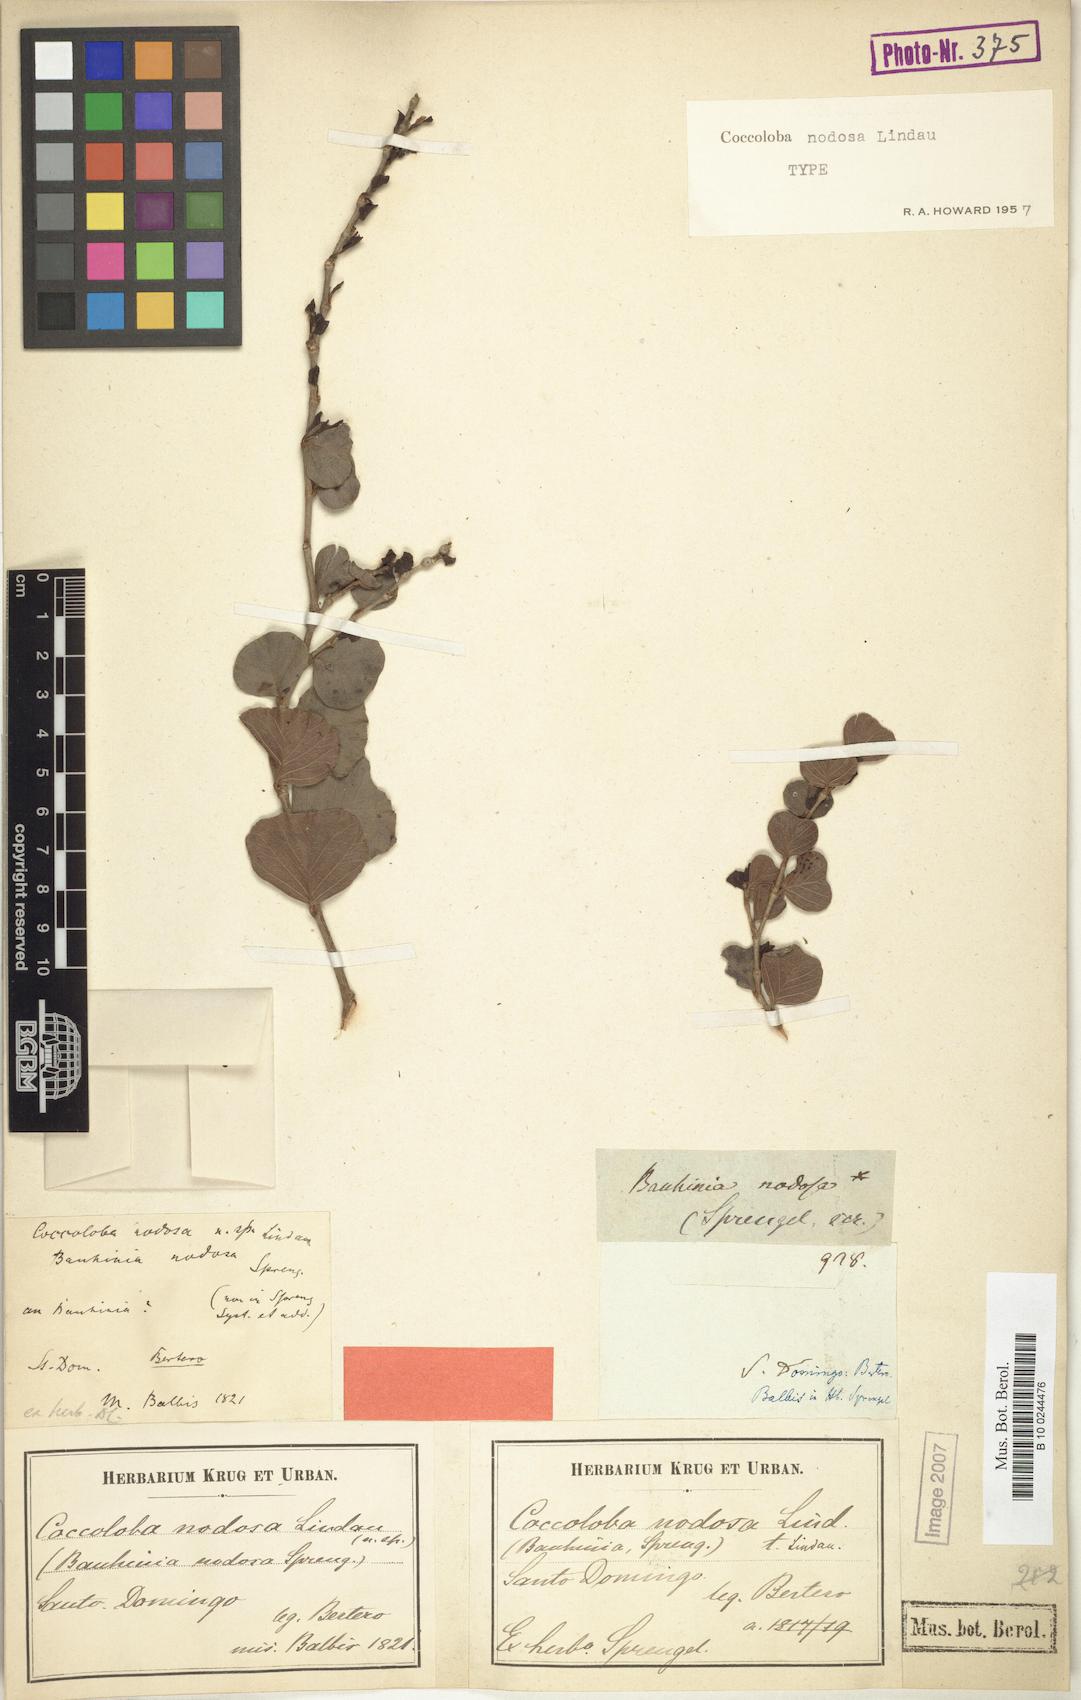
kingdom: Plantae
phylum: Tracheophyta
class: Magnoliopsida
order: Caryophyllales
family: Polygonaceae
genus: Coccoloba
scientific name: Coccoloba nodosa
